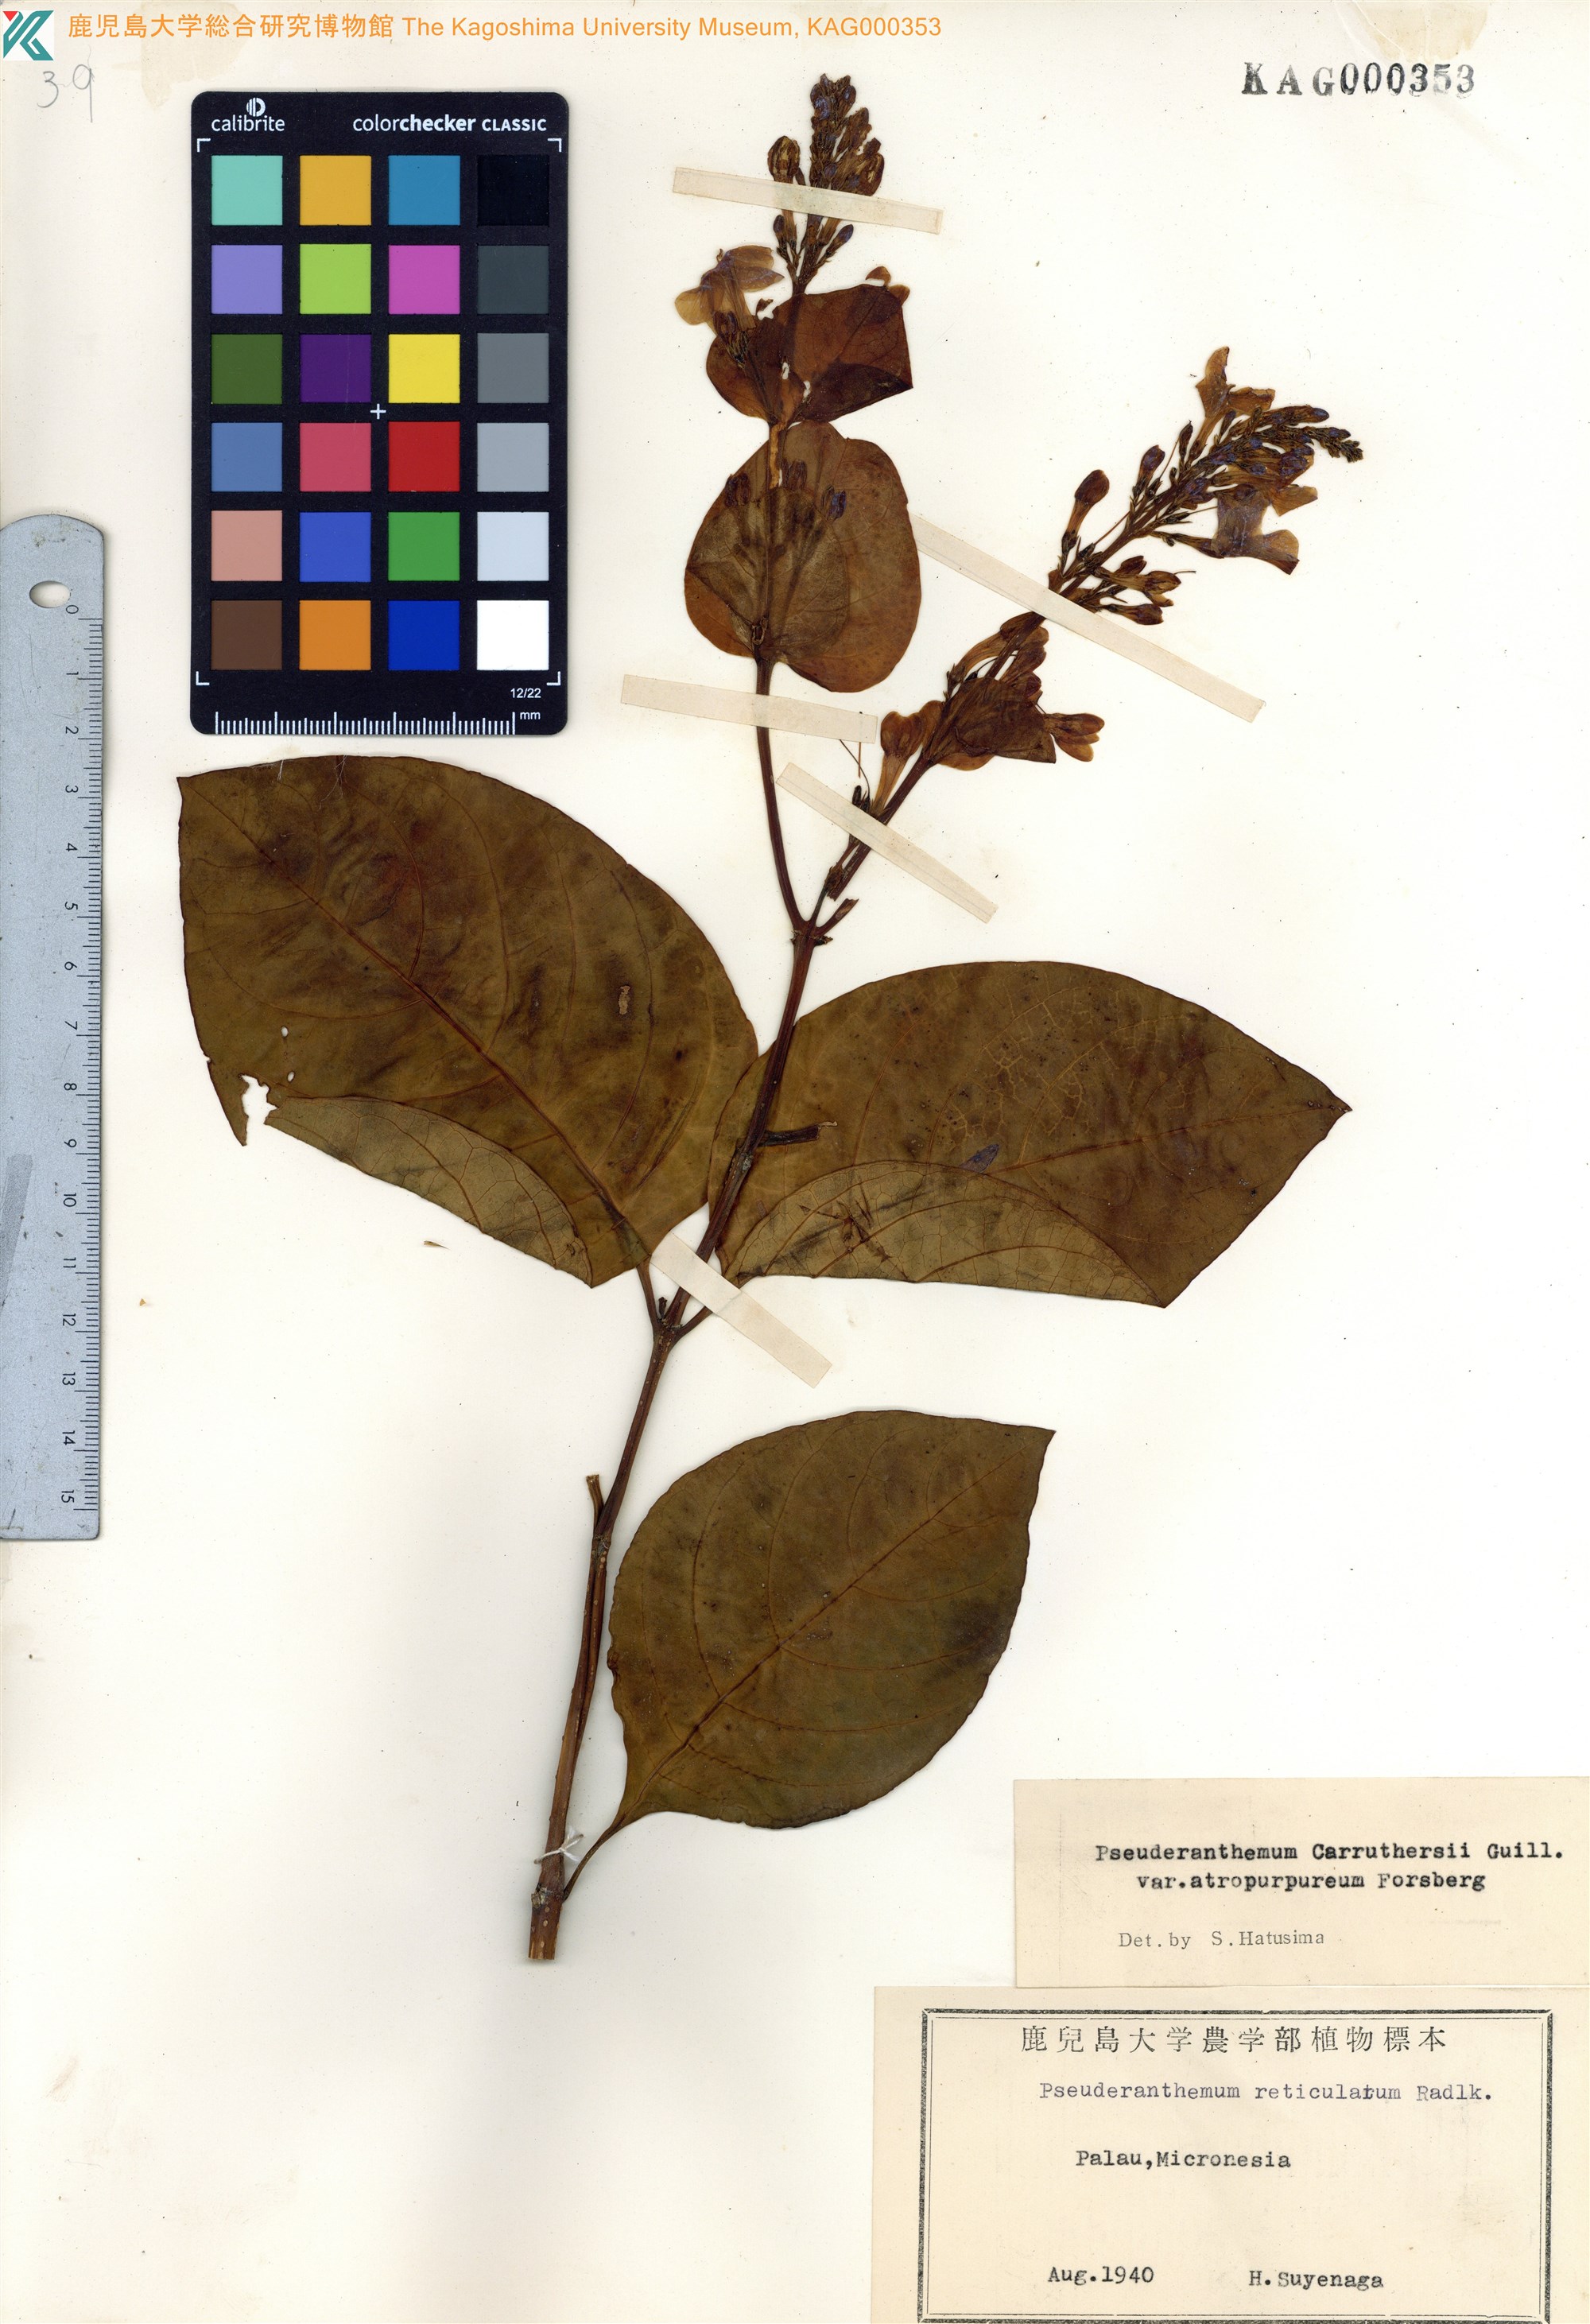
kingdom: Plantae
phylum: Tracheophyta
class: Magnoliopsida
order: Lamiales
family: Acanthaceae
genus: Pseuderanthemum
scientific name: Pseuderanthemum maculatum
